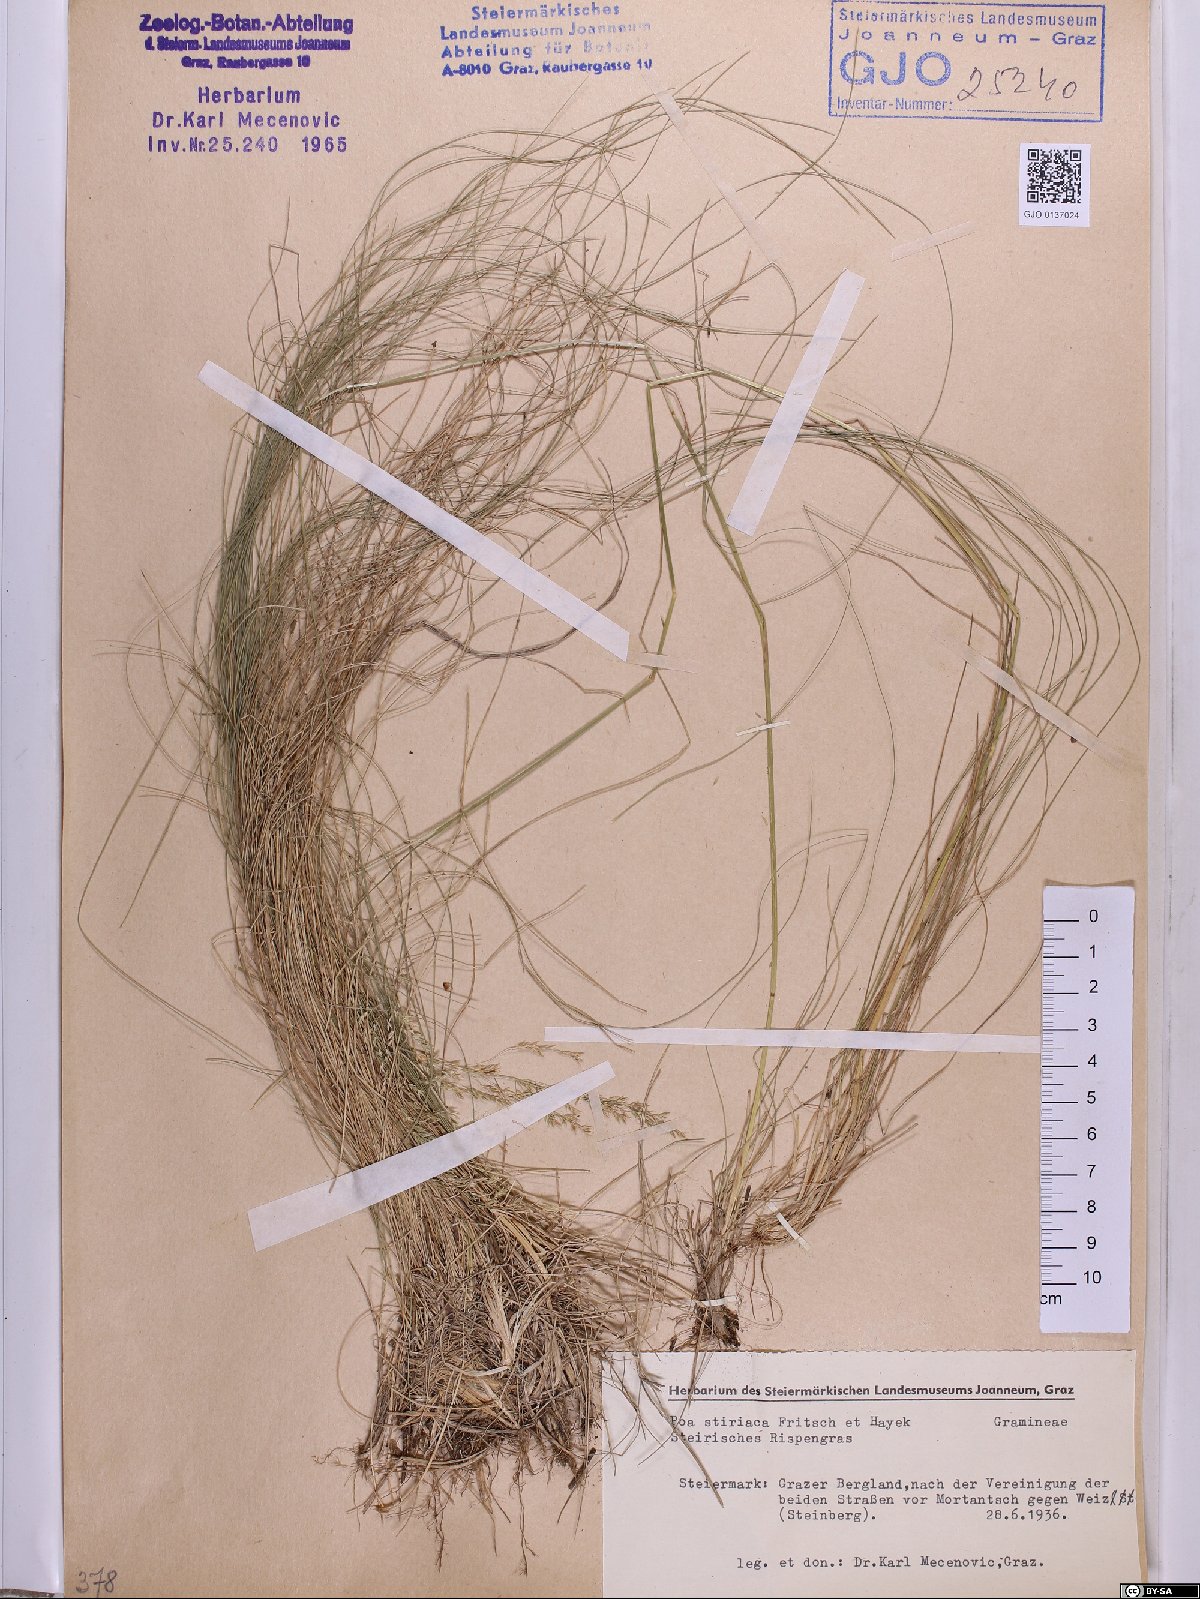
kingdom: Plantae
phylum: Tracheophyta
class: Liliopsida
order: Poales
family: Poaceae
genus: Poa
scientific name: Poa stiriaca
